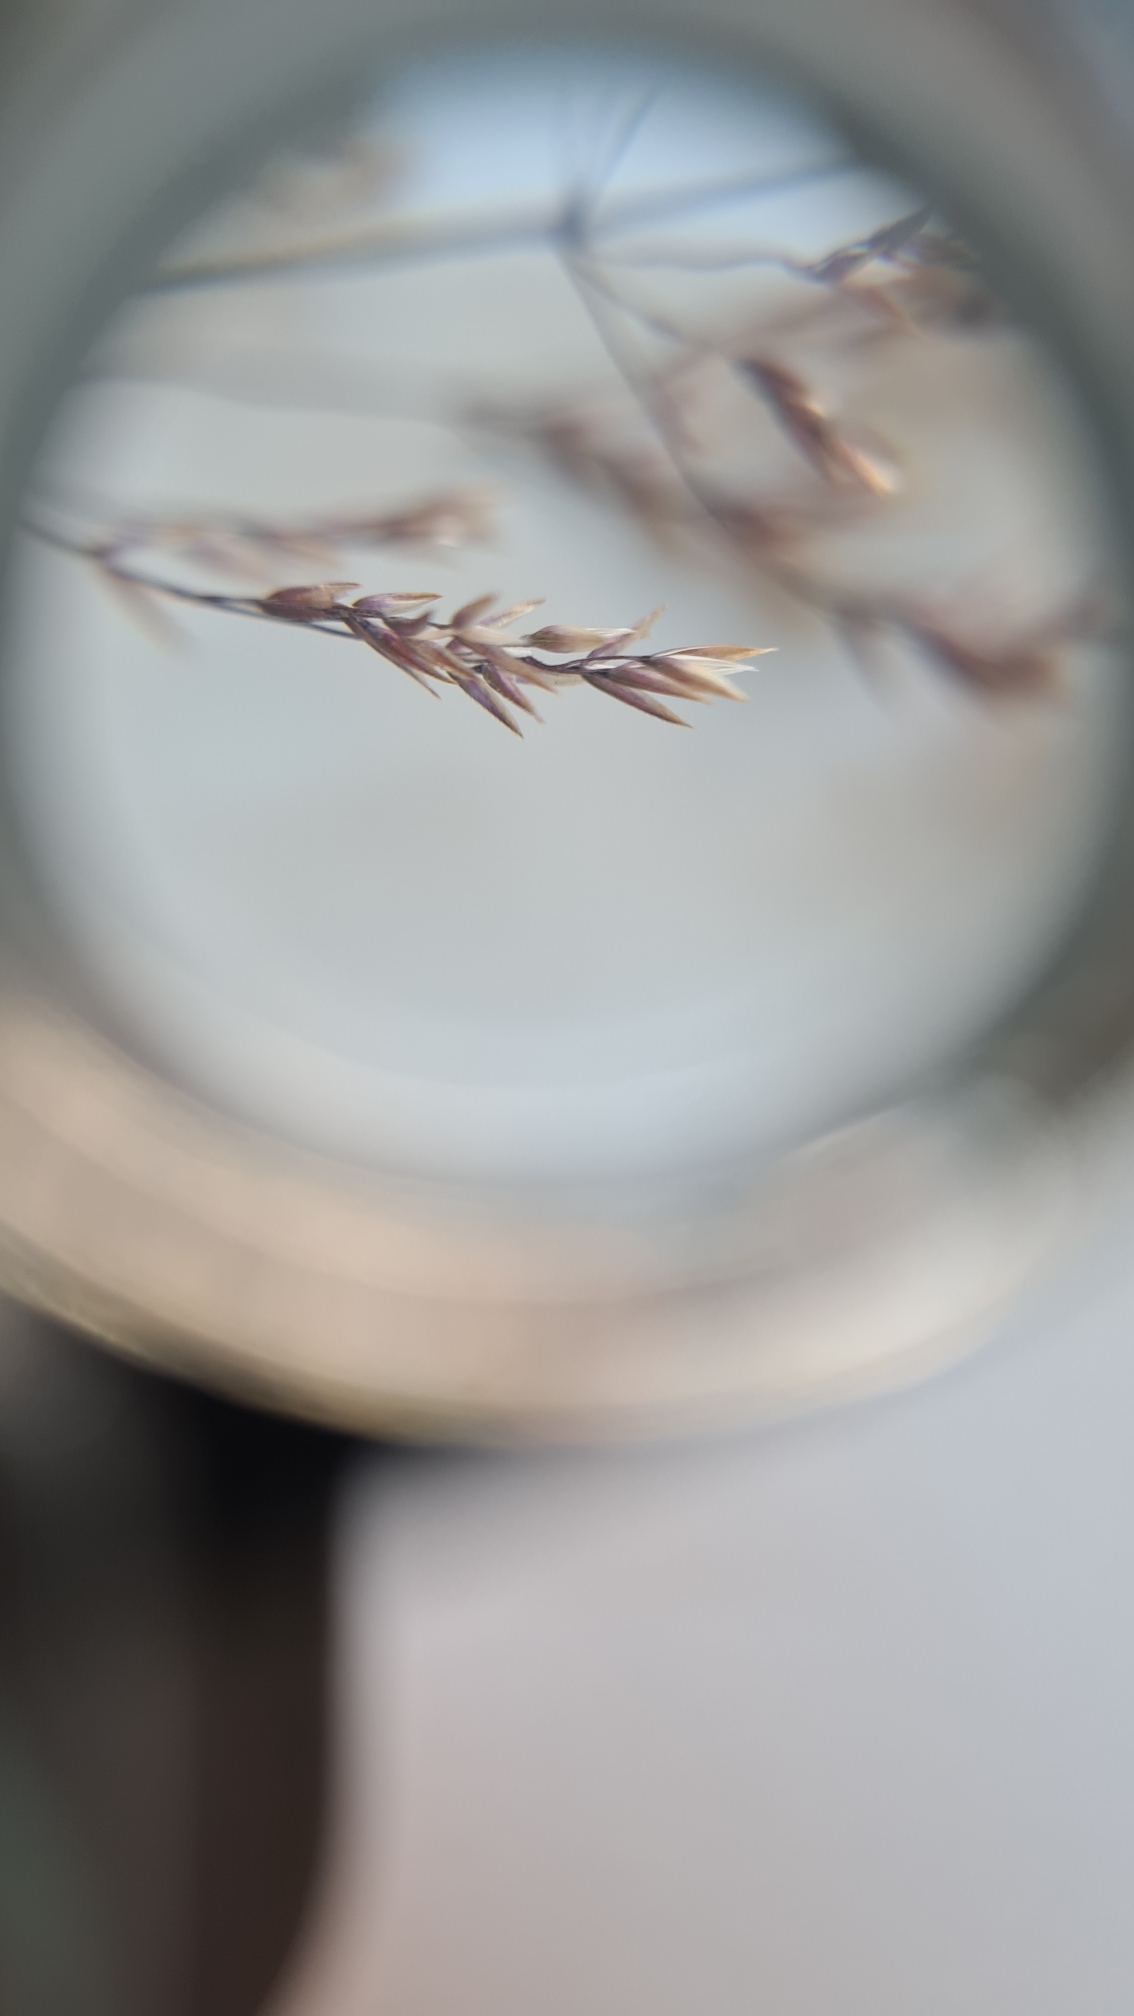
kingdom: Plantae
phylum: Tracheophyta
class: Liliopsida
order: Poales
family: Poaceae
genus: Agrostis
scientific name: Agrostis capillaris
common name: Almindelig hvene
